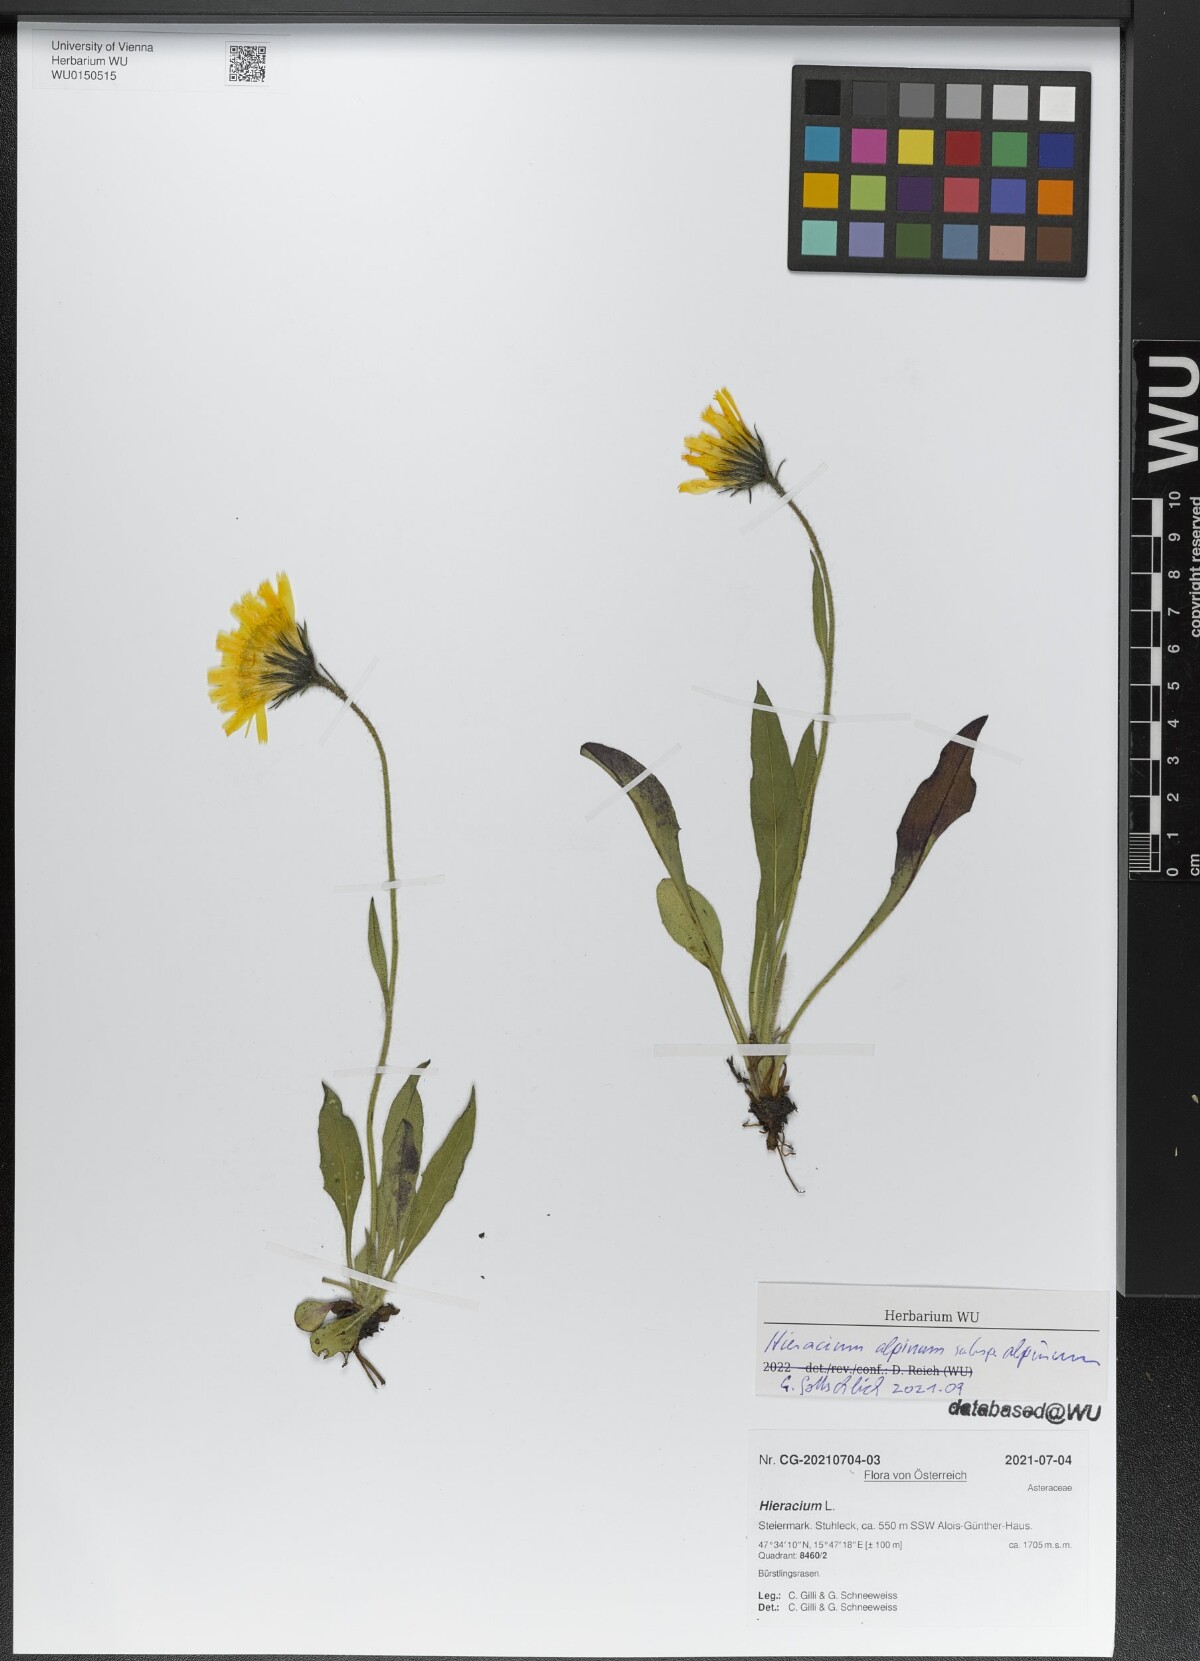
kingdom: Plantae
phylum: Tracheophyta
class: Magnoliopsida
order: Asterales
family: Asteraceae
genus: Hieracium
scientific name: Hieracium alpinum
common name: Alpine hawkweed
